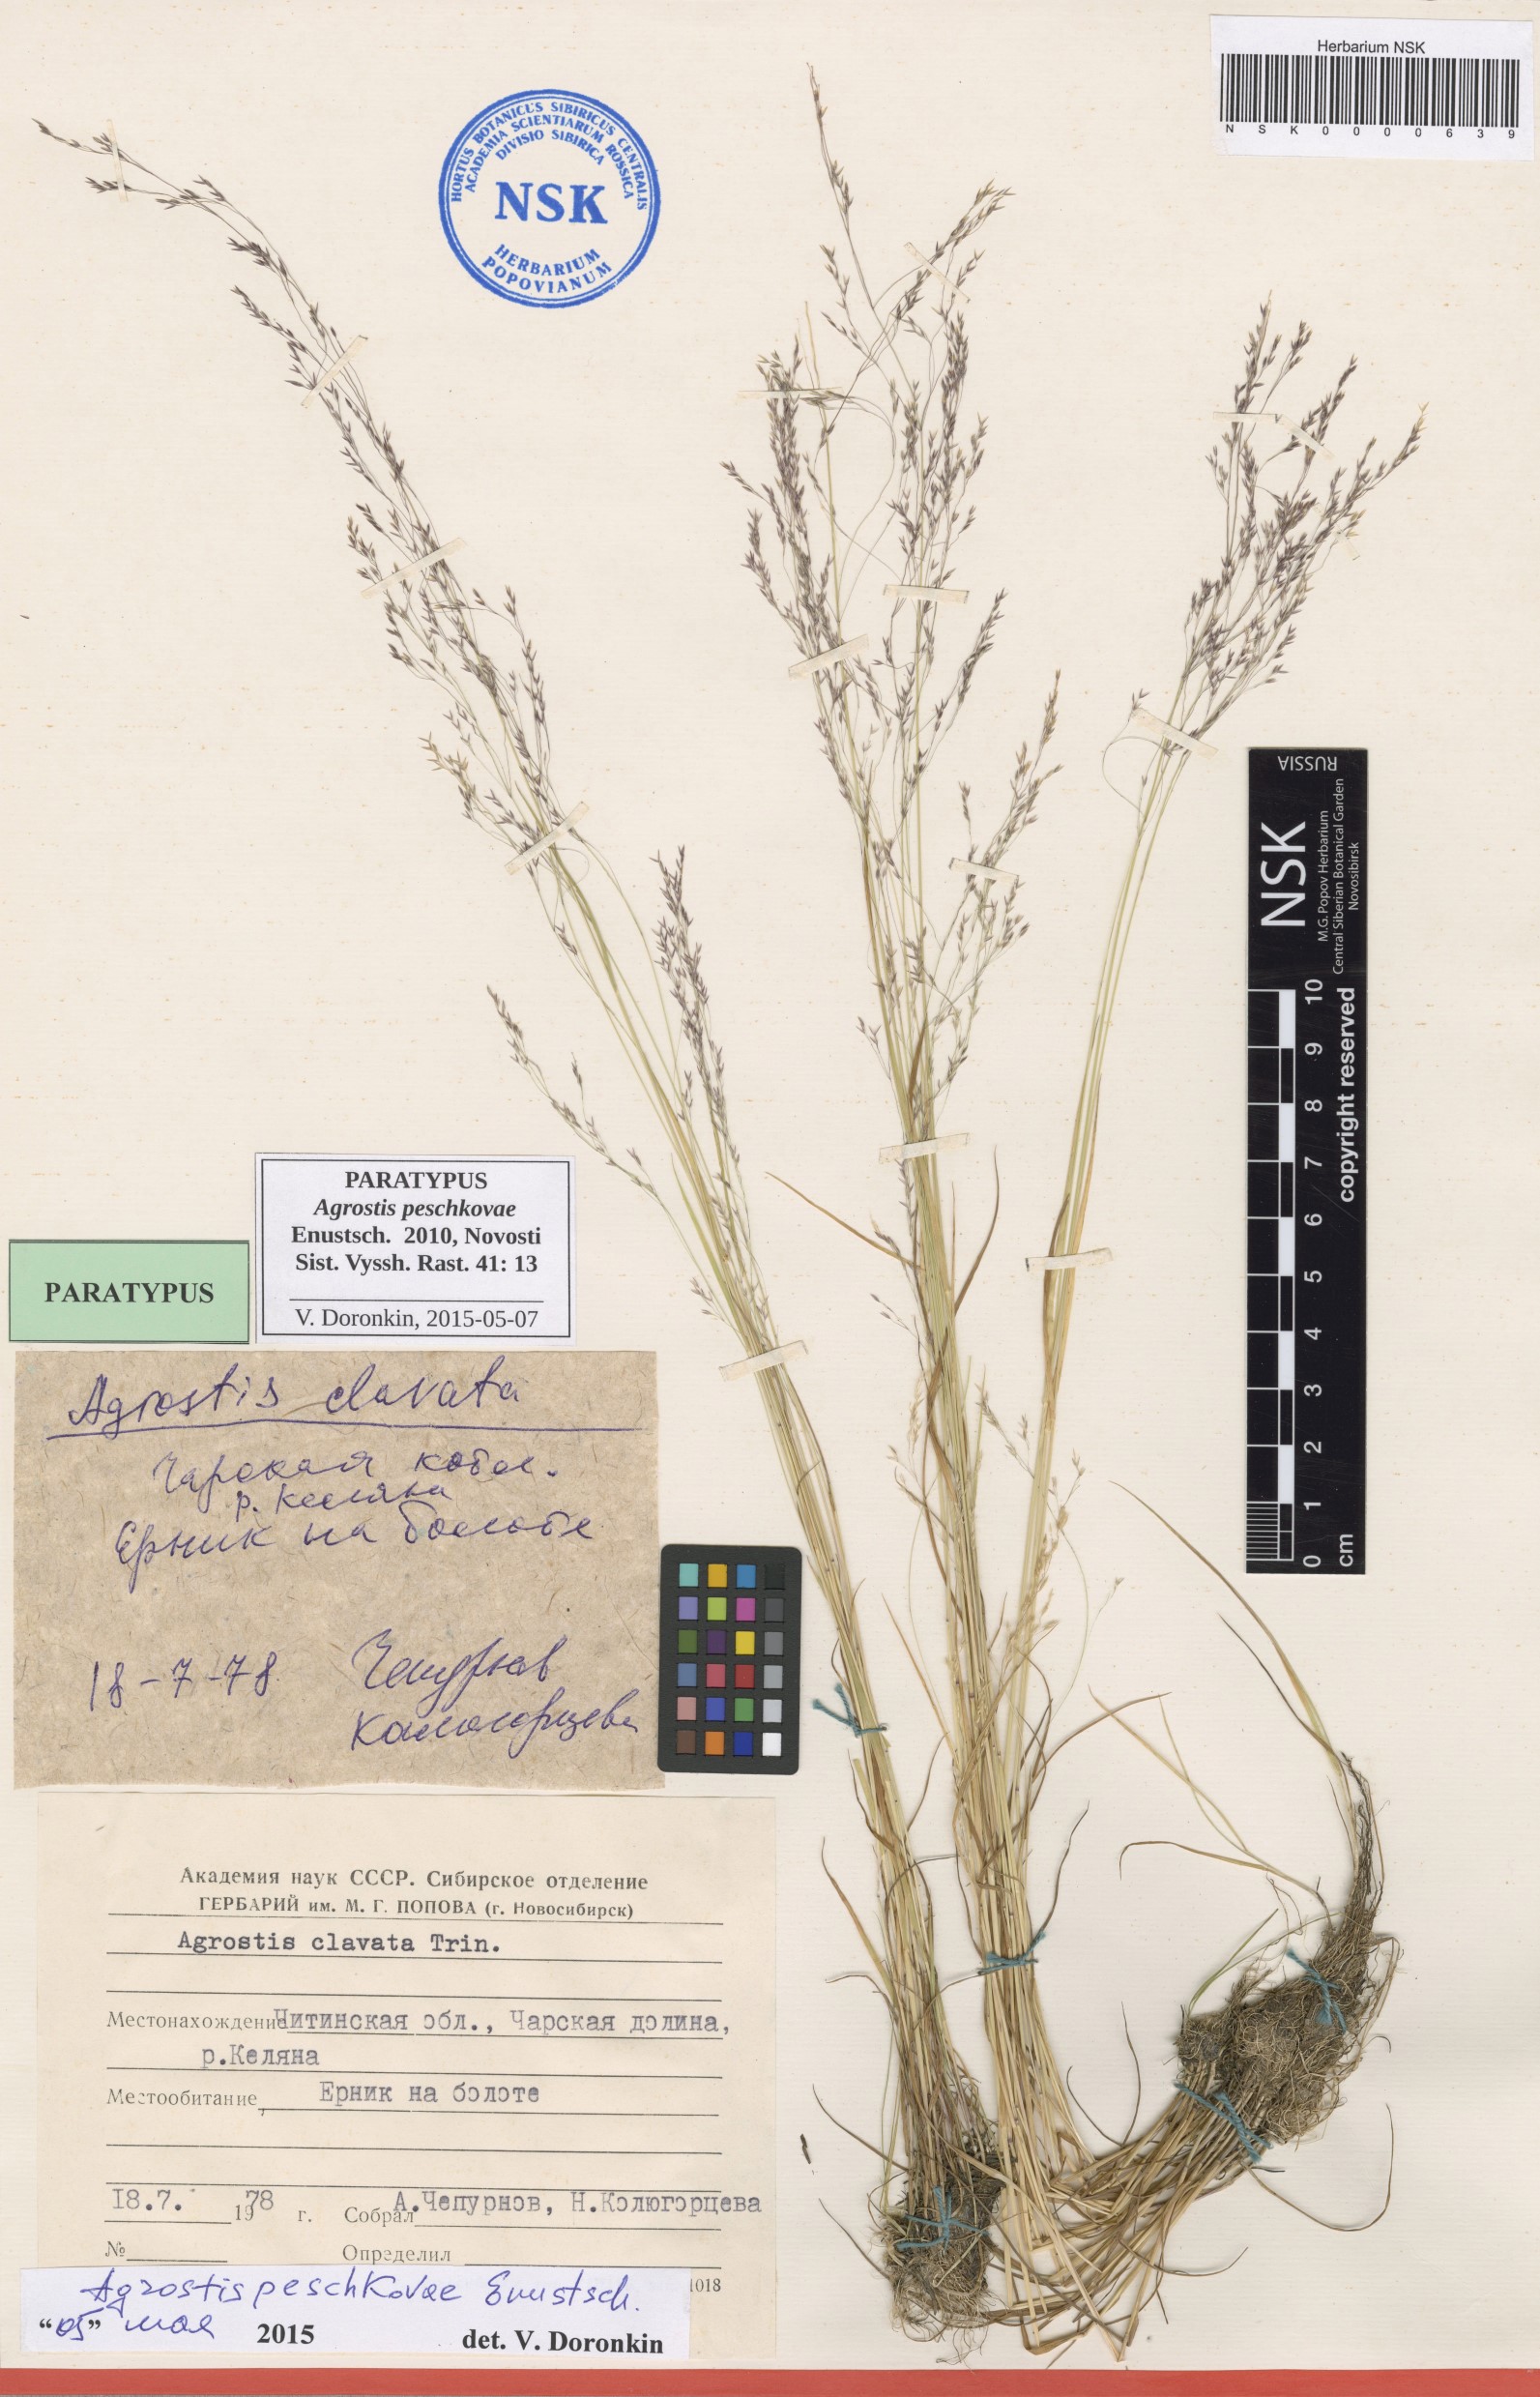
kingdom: Plantae
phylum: Tracheophyta
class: Liliopsida
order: Poales
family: Poaceae
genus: Agrostis
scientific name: Agrostis peschkovae
